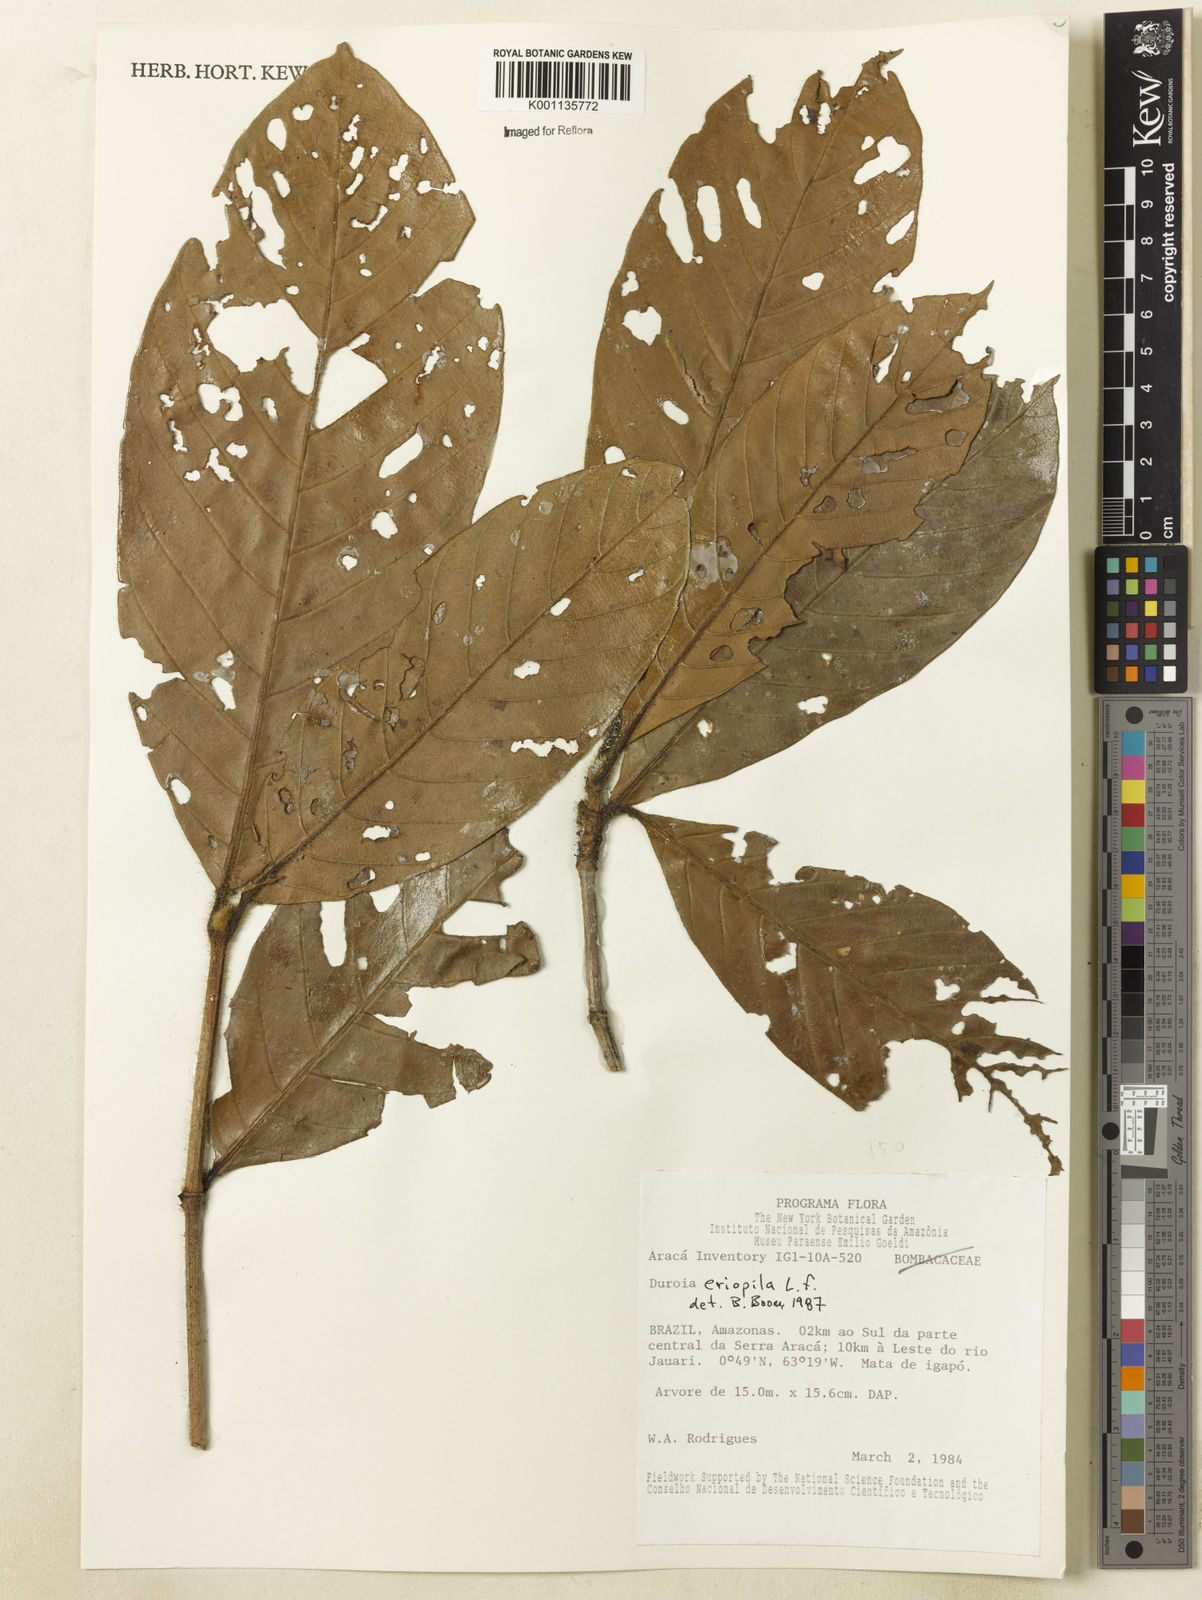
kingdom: Plantae
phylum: Tracheophyta
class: Magnoliopsida
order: Gentianales
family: Rubiaceae
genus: Duroia
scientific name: Duroia eriopila
